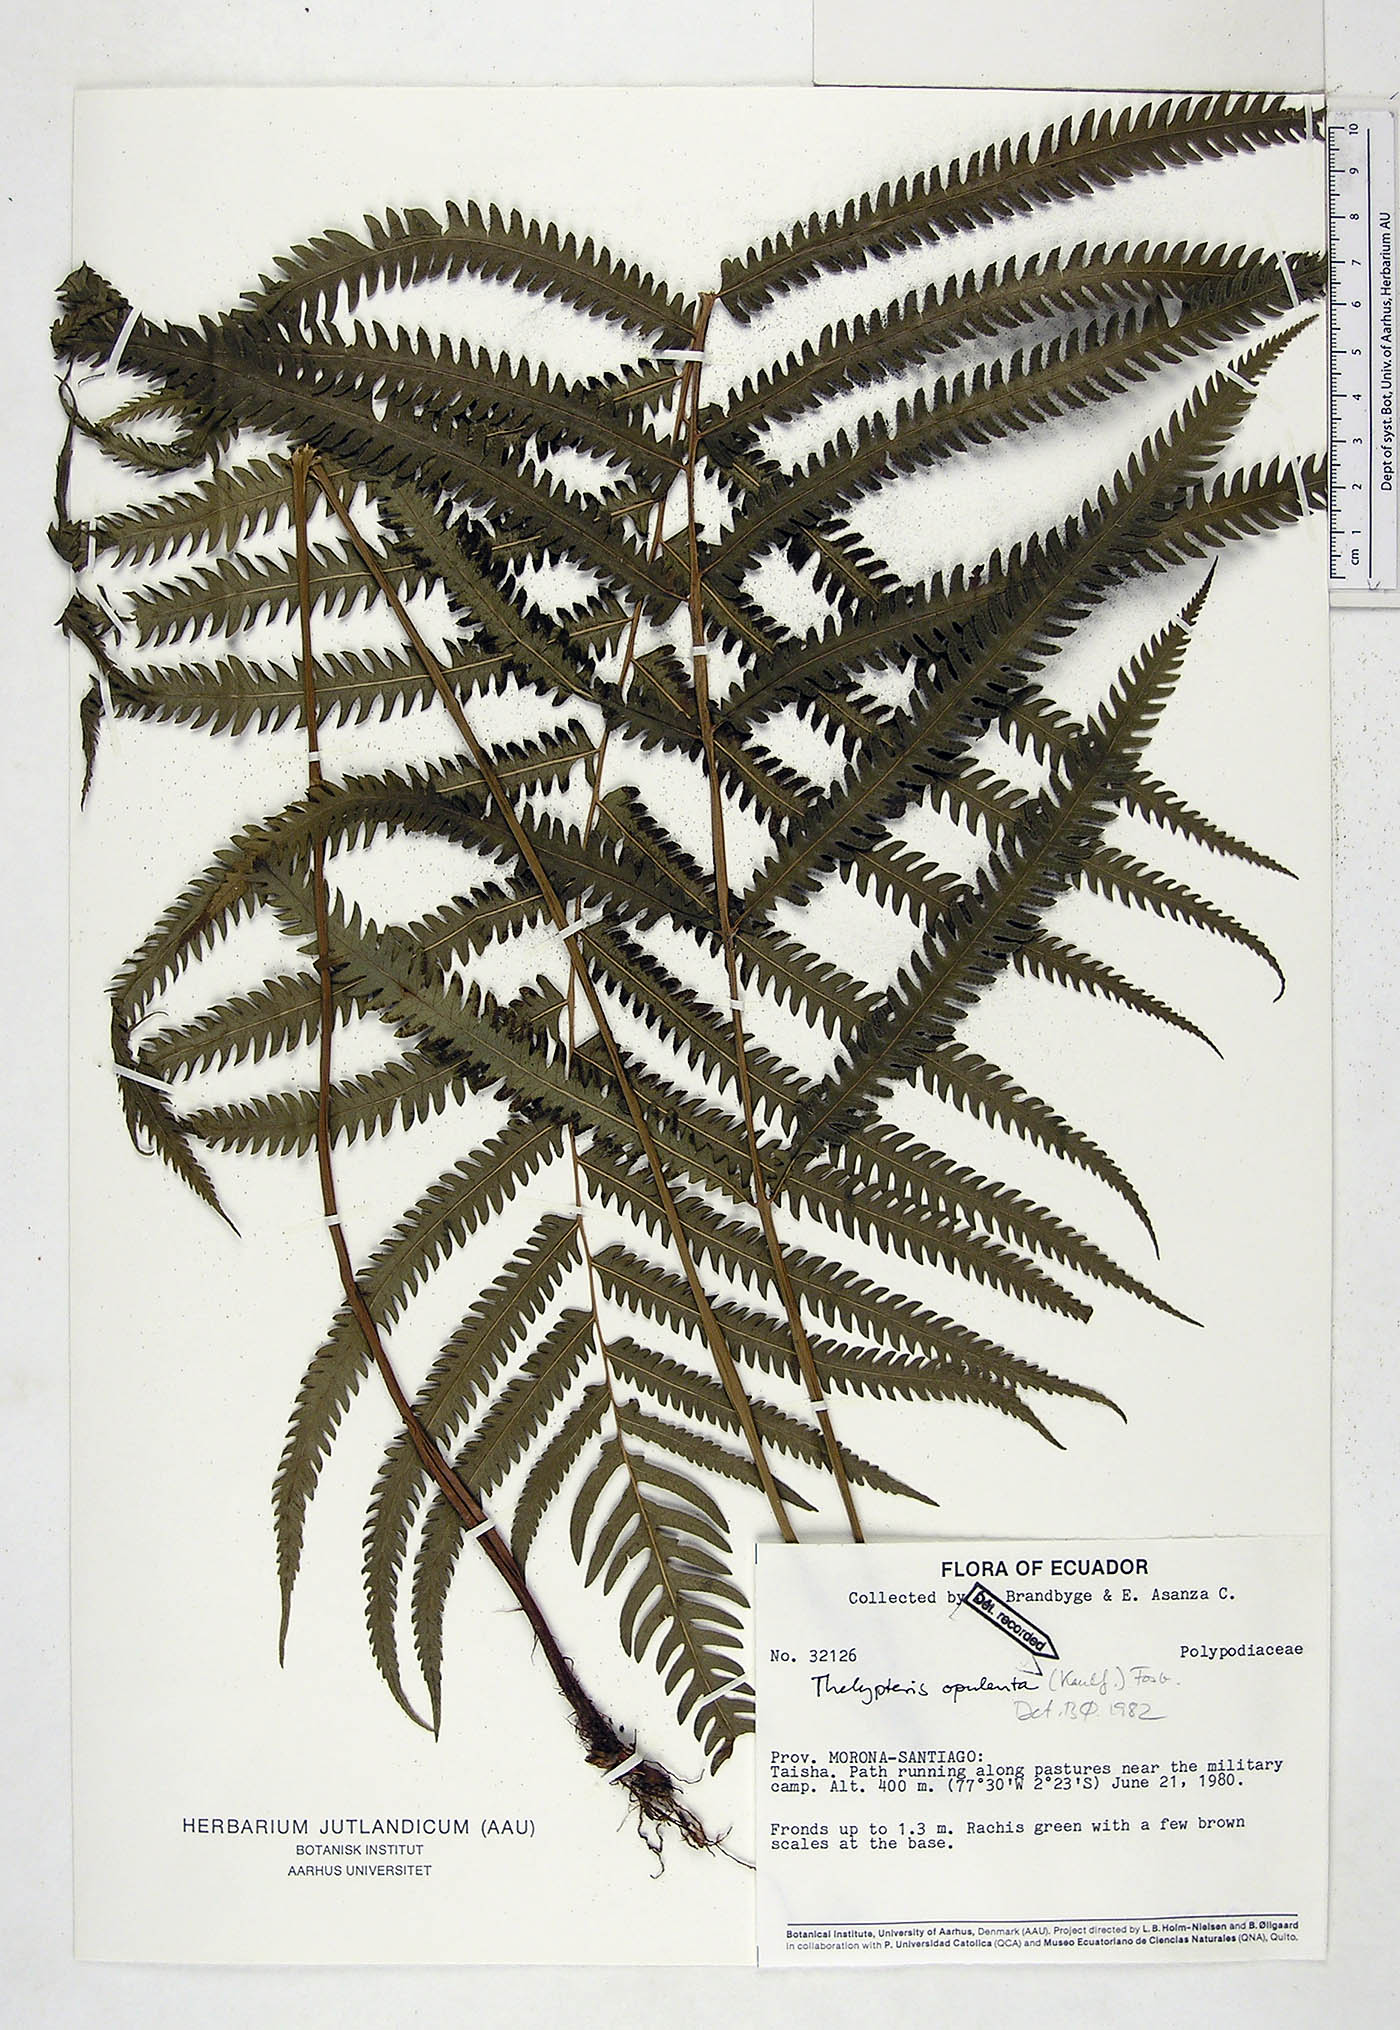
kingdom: Plantae
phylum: Tracheophyta
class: Polypodiopsida
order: Polypodiales
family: Thelypteridaceae
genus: Amblovenatum
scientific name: Amblovenatum opulentum
